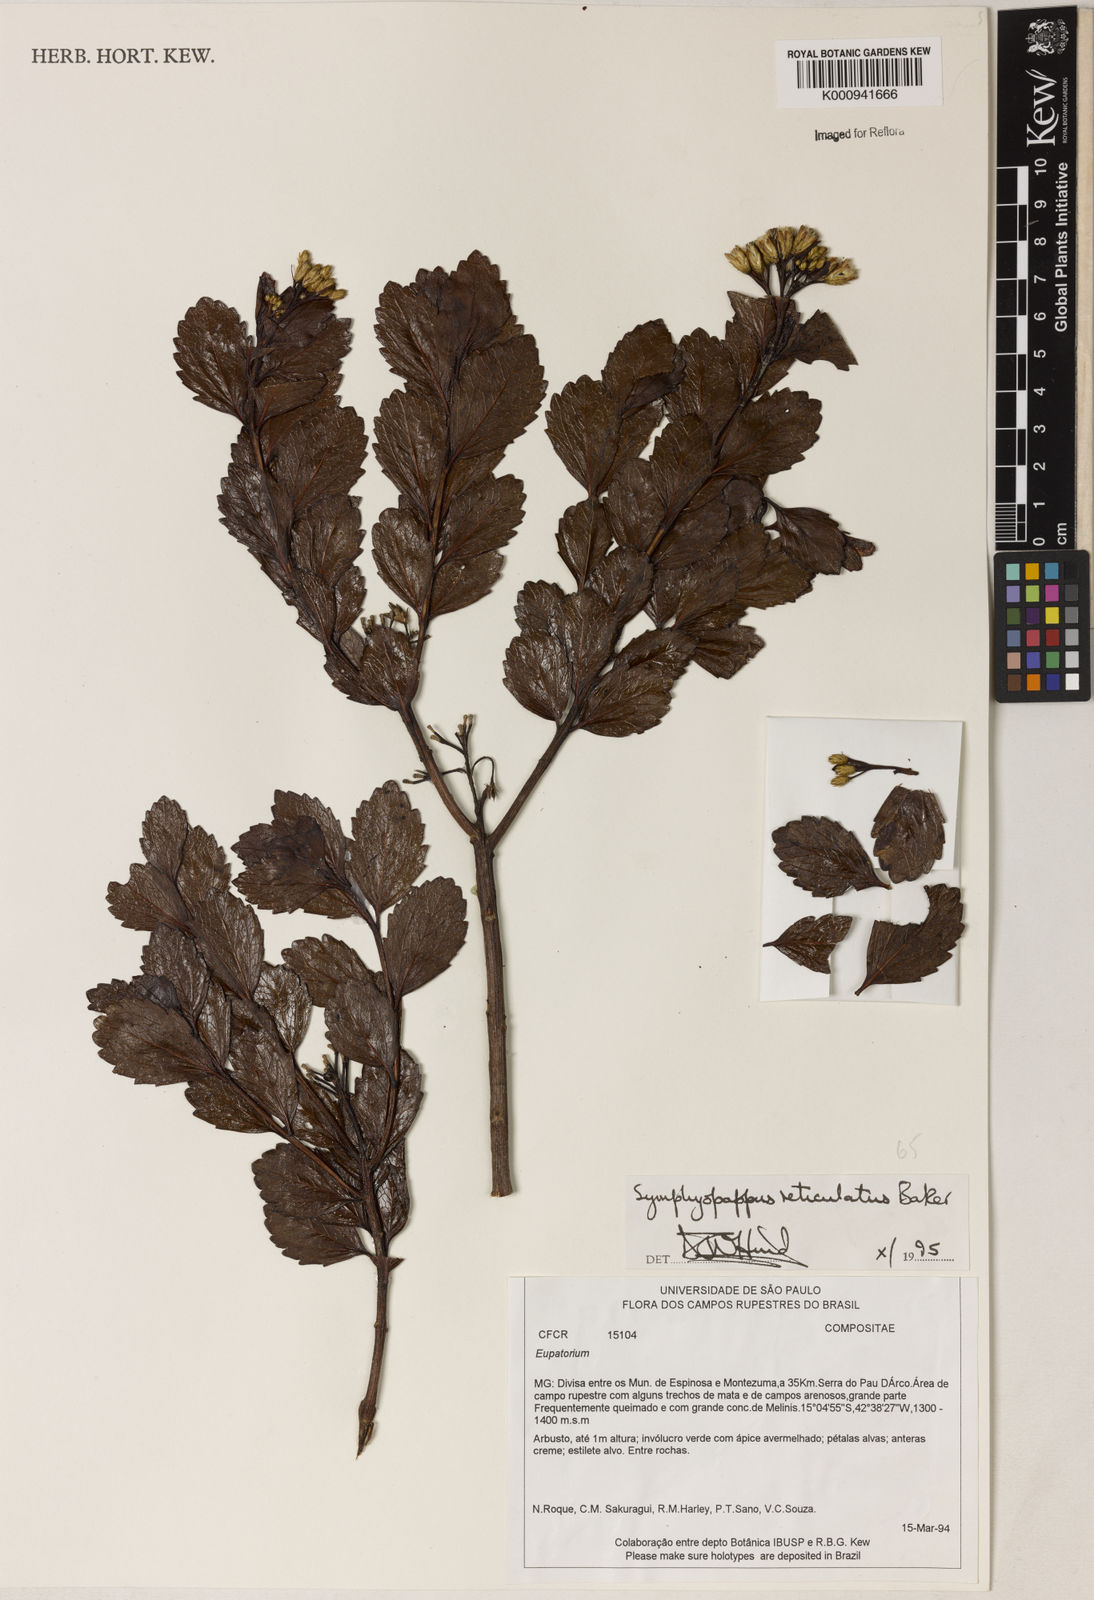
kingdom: Plantae
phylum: Tracheophyta
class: Magnoliopsida
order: Asterales
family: Asteraceae
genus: Symphyopappus
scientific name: Symphyopappus
